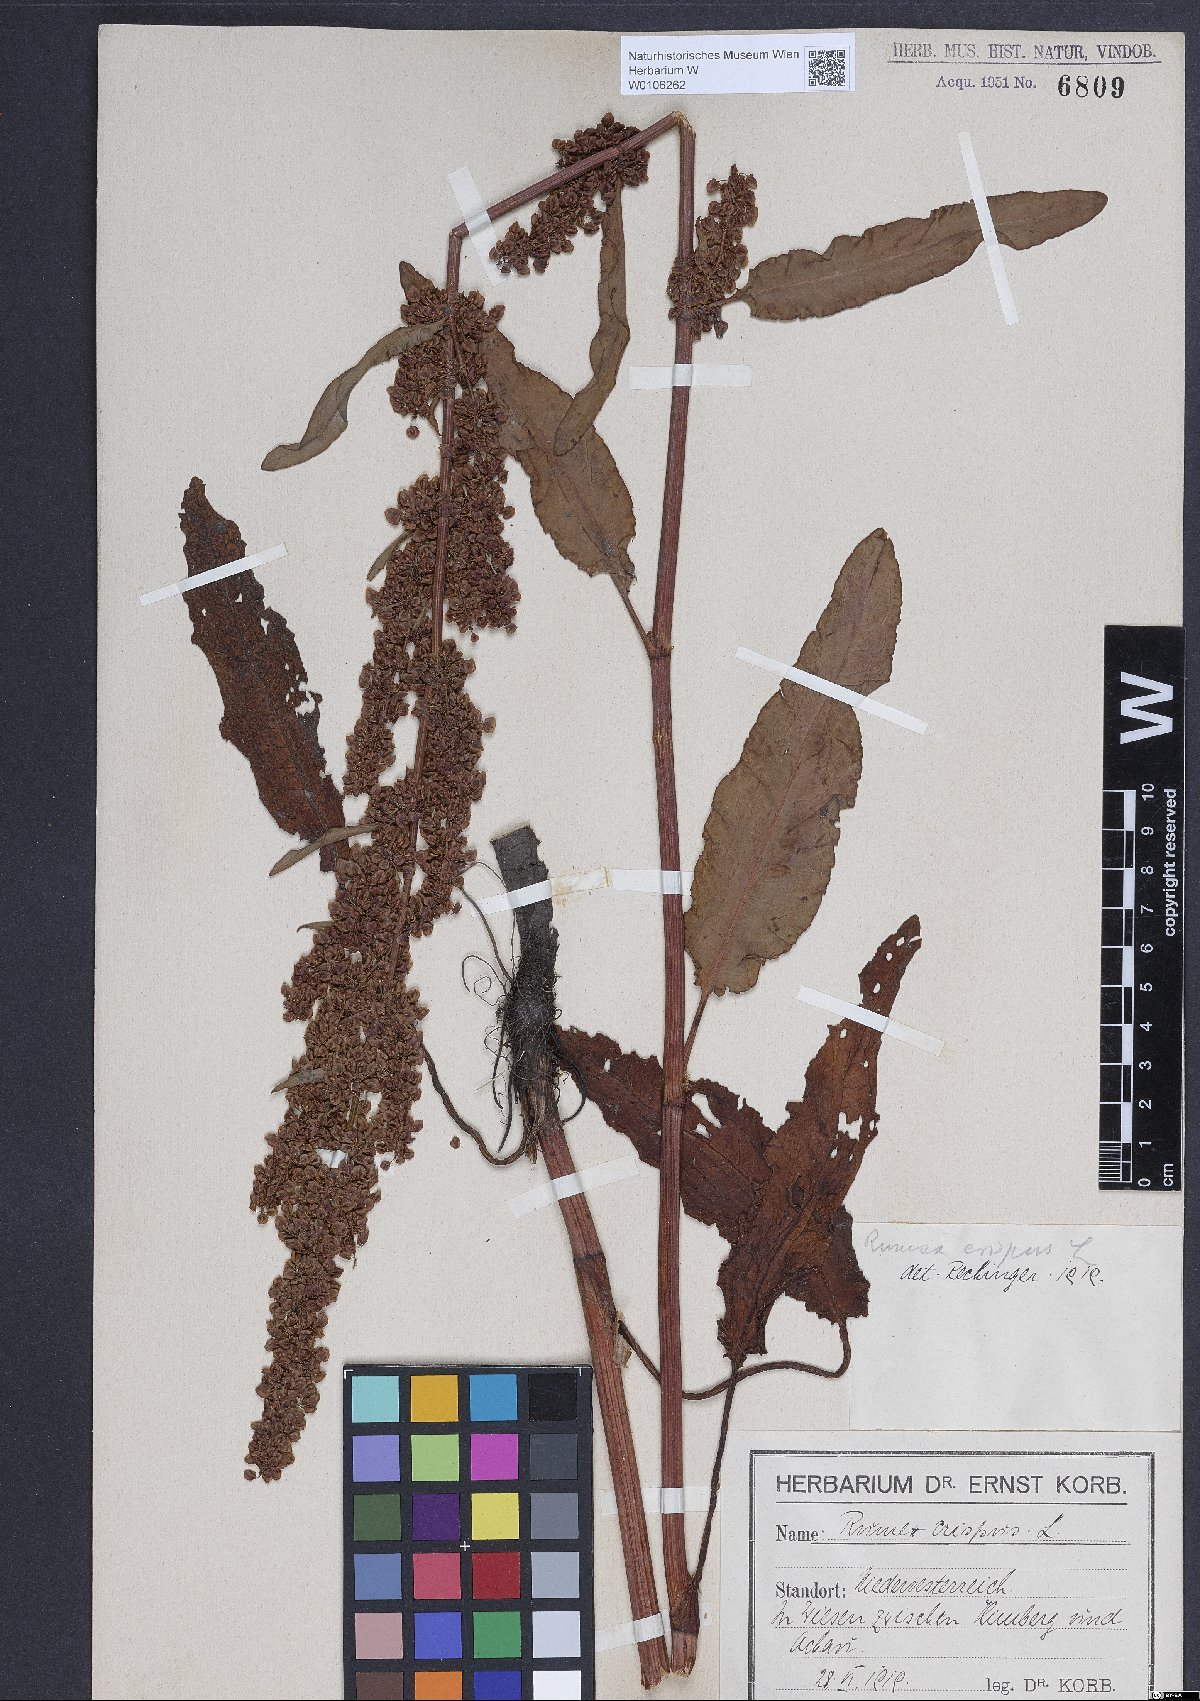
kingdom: Plantae
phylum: Tracheophyta
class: Magnoliopsida
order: Caryophyllales
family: Polygonaceae
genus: Rumex
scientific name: Rumex crispus
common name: Curled dock
